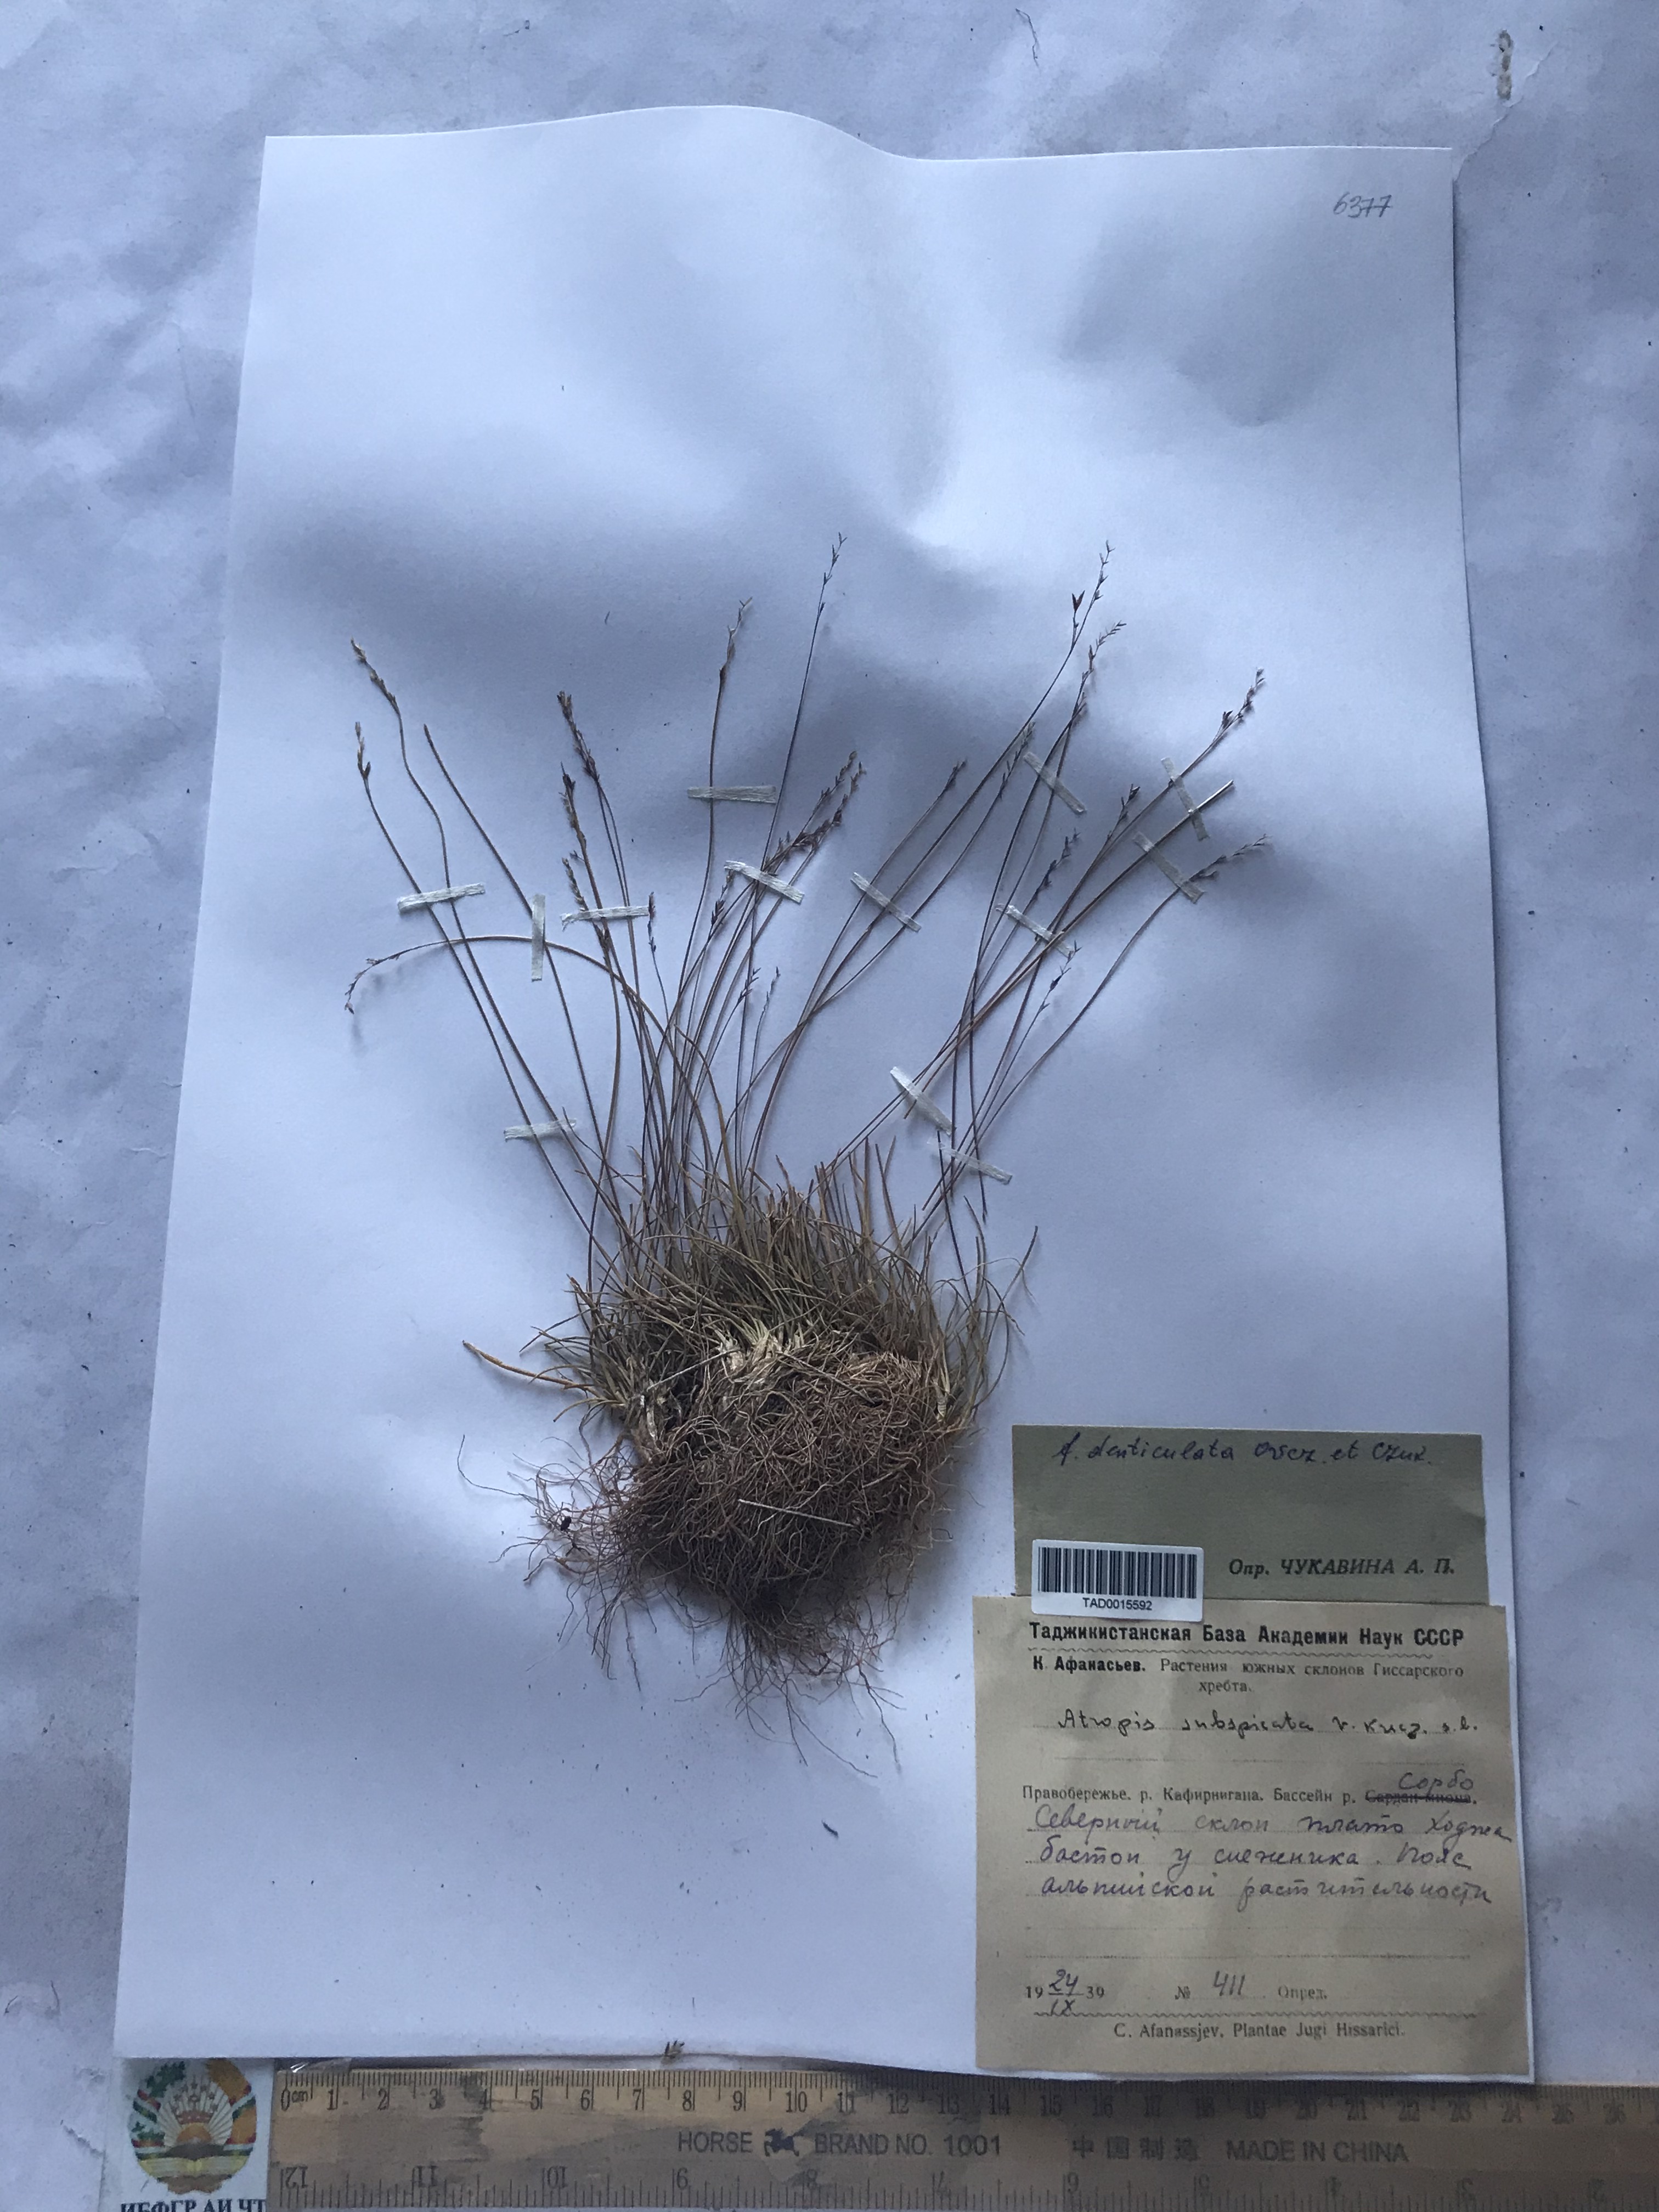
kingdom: Plantae
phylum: Tracheophyta
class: Liliopsida
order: Poales
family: Poaceae
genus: Puccinellia
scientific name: Puccinellia subspicata
